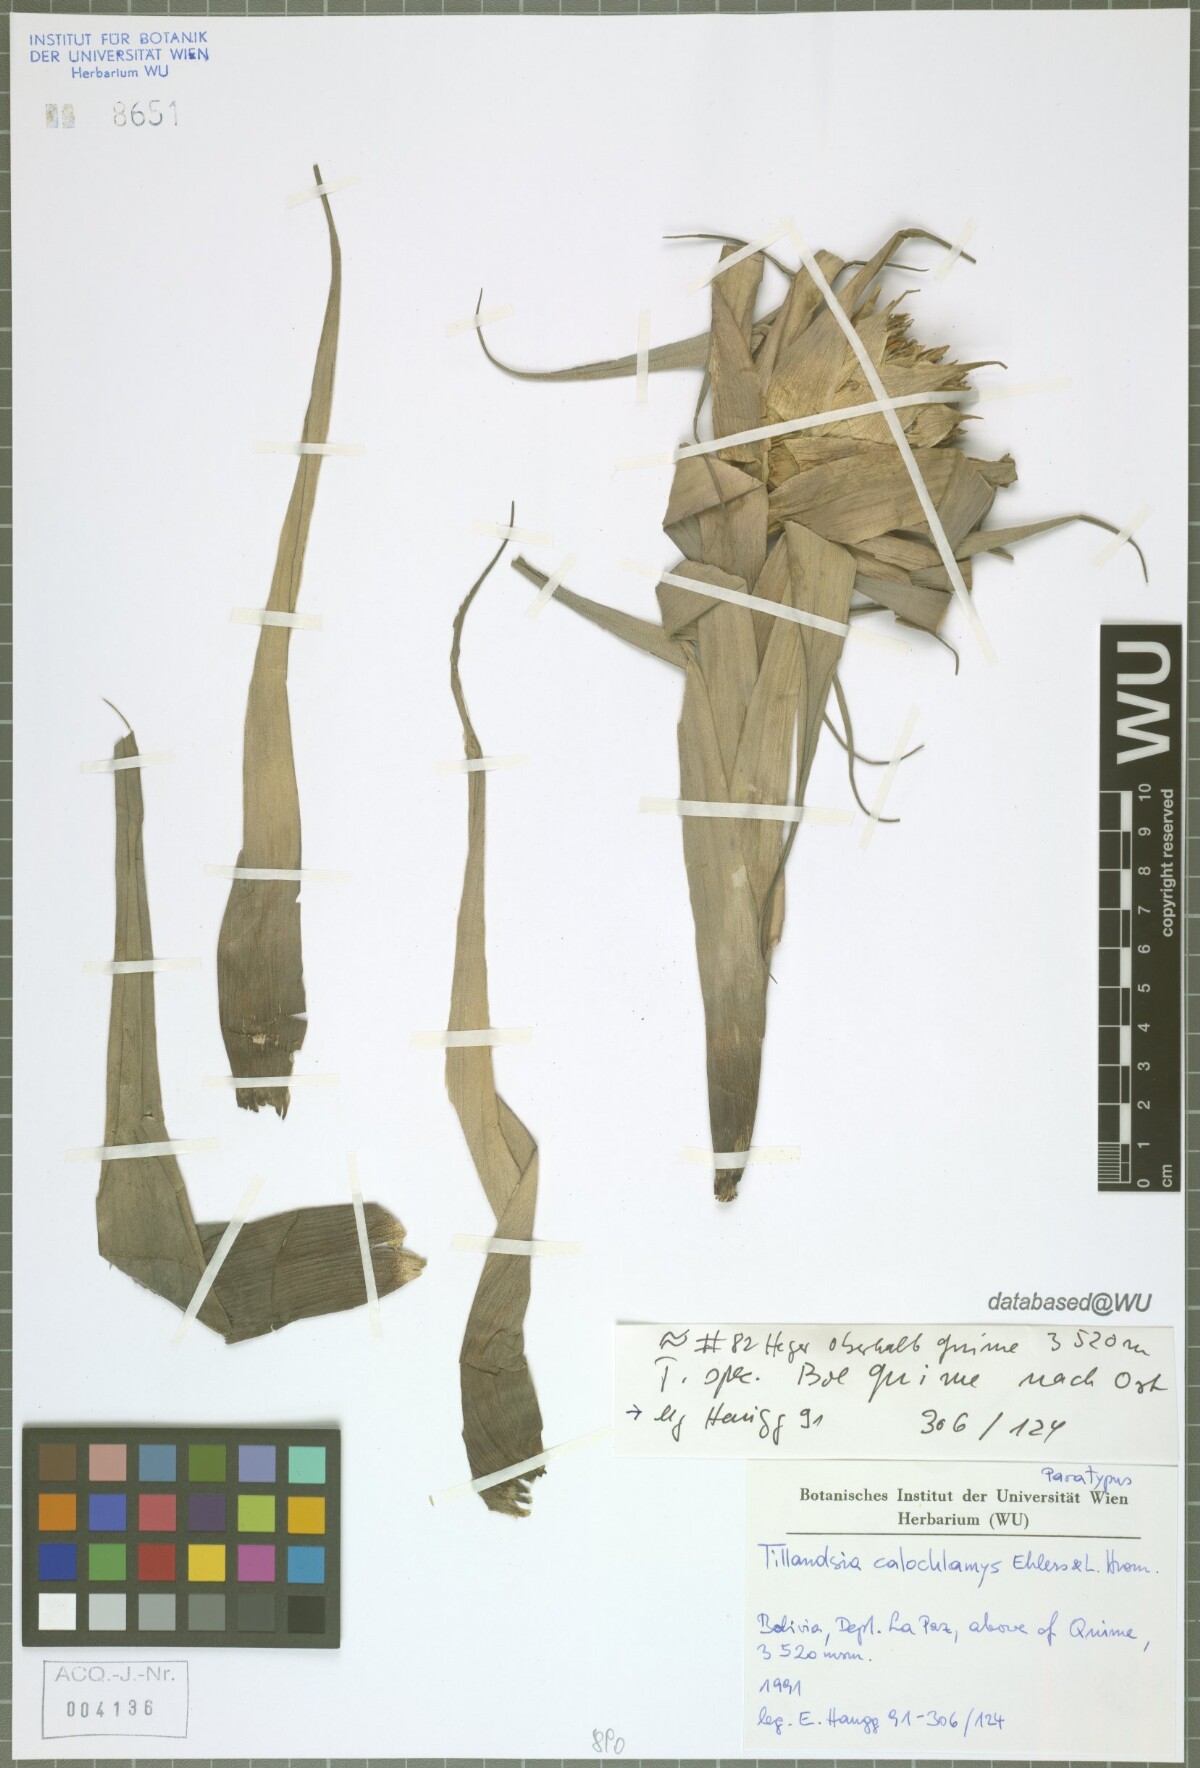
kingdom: Plantae
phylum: Tracheophyta
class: Liliopsida
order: Poales
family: Bromeliaceae
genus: Tillandsia
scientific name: Tillandsia calochlamys
